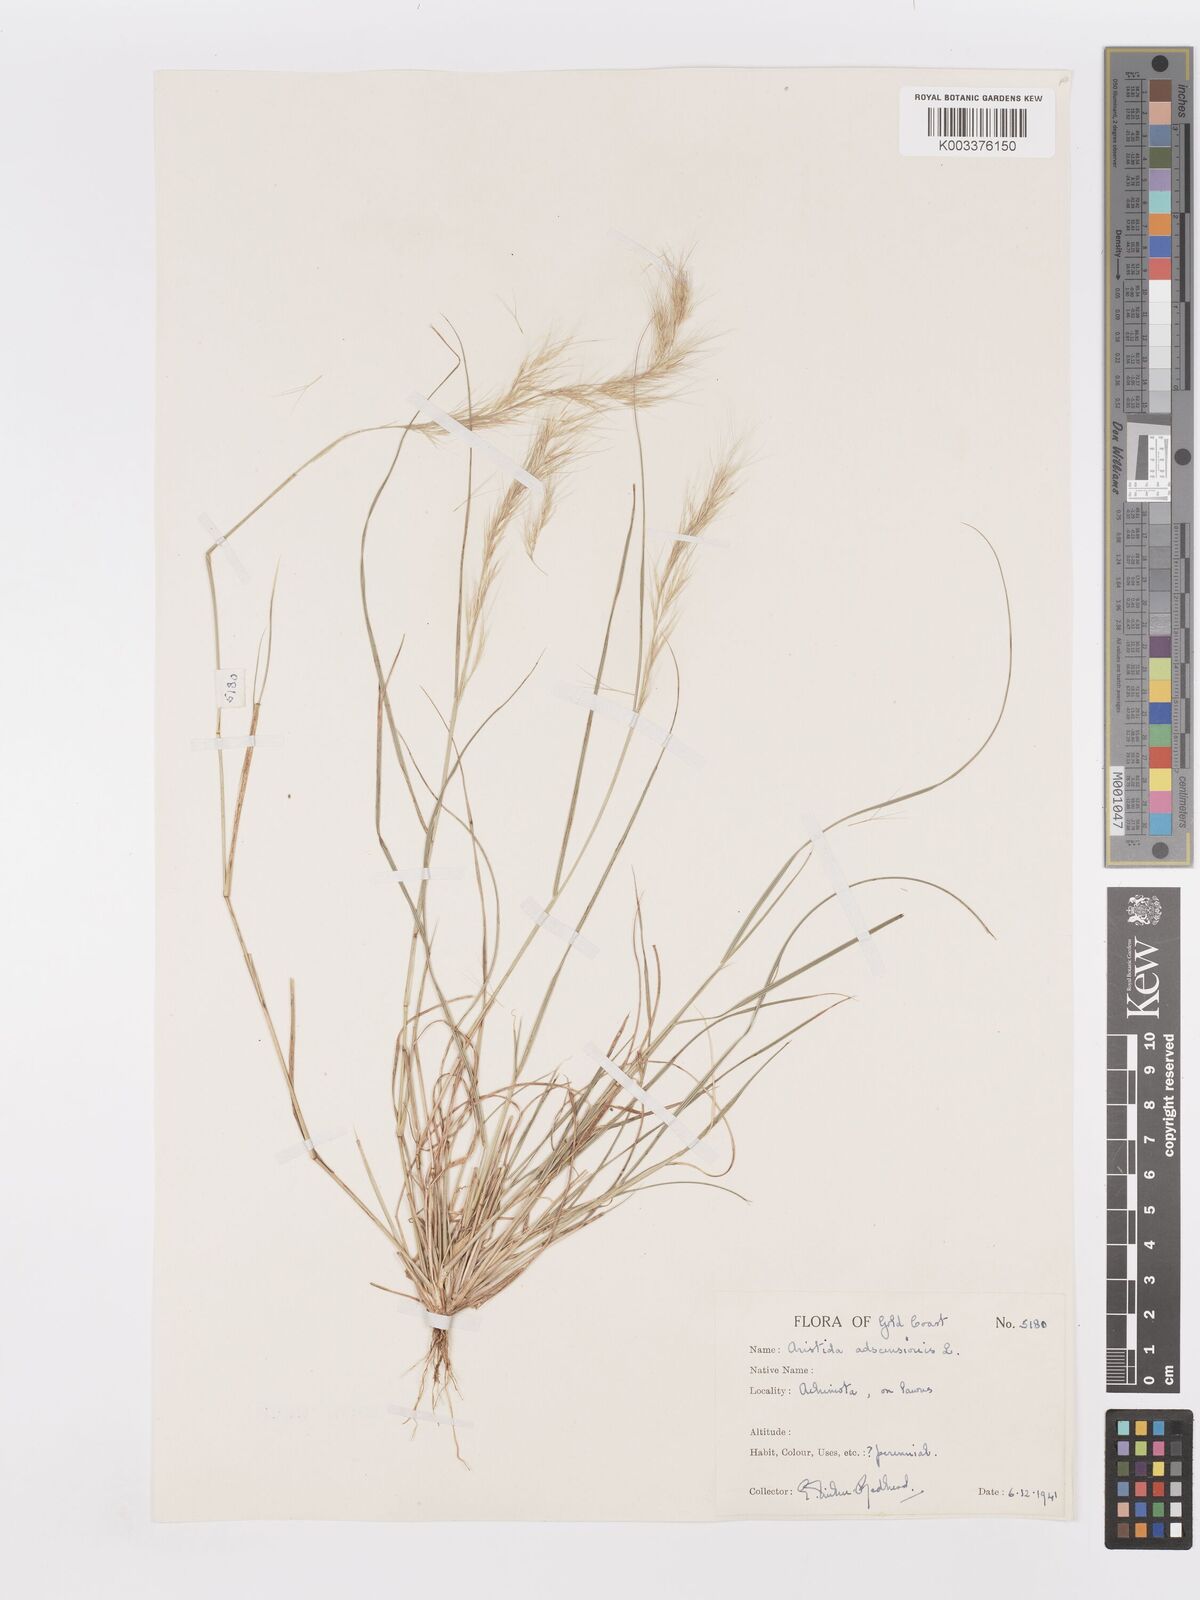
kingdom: Plantae
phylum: Tracheophyta
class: Liliopsida
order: Poales
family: Poaceae
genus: Aristida
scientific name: Aristida adscensionis
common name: Sixweeks threeawn
